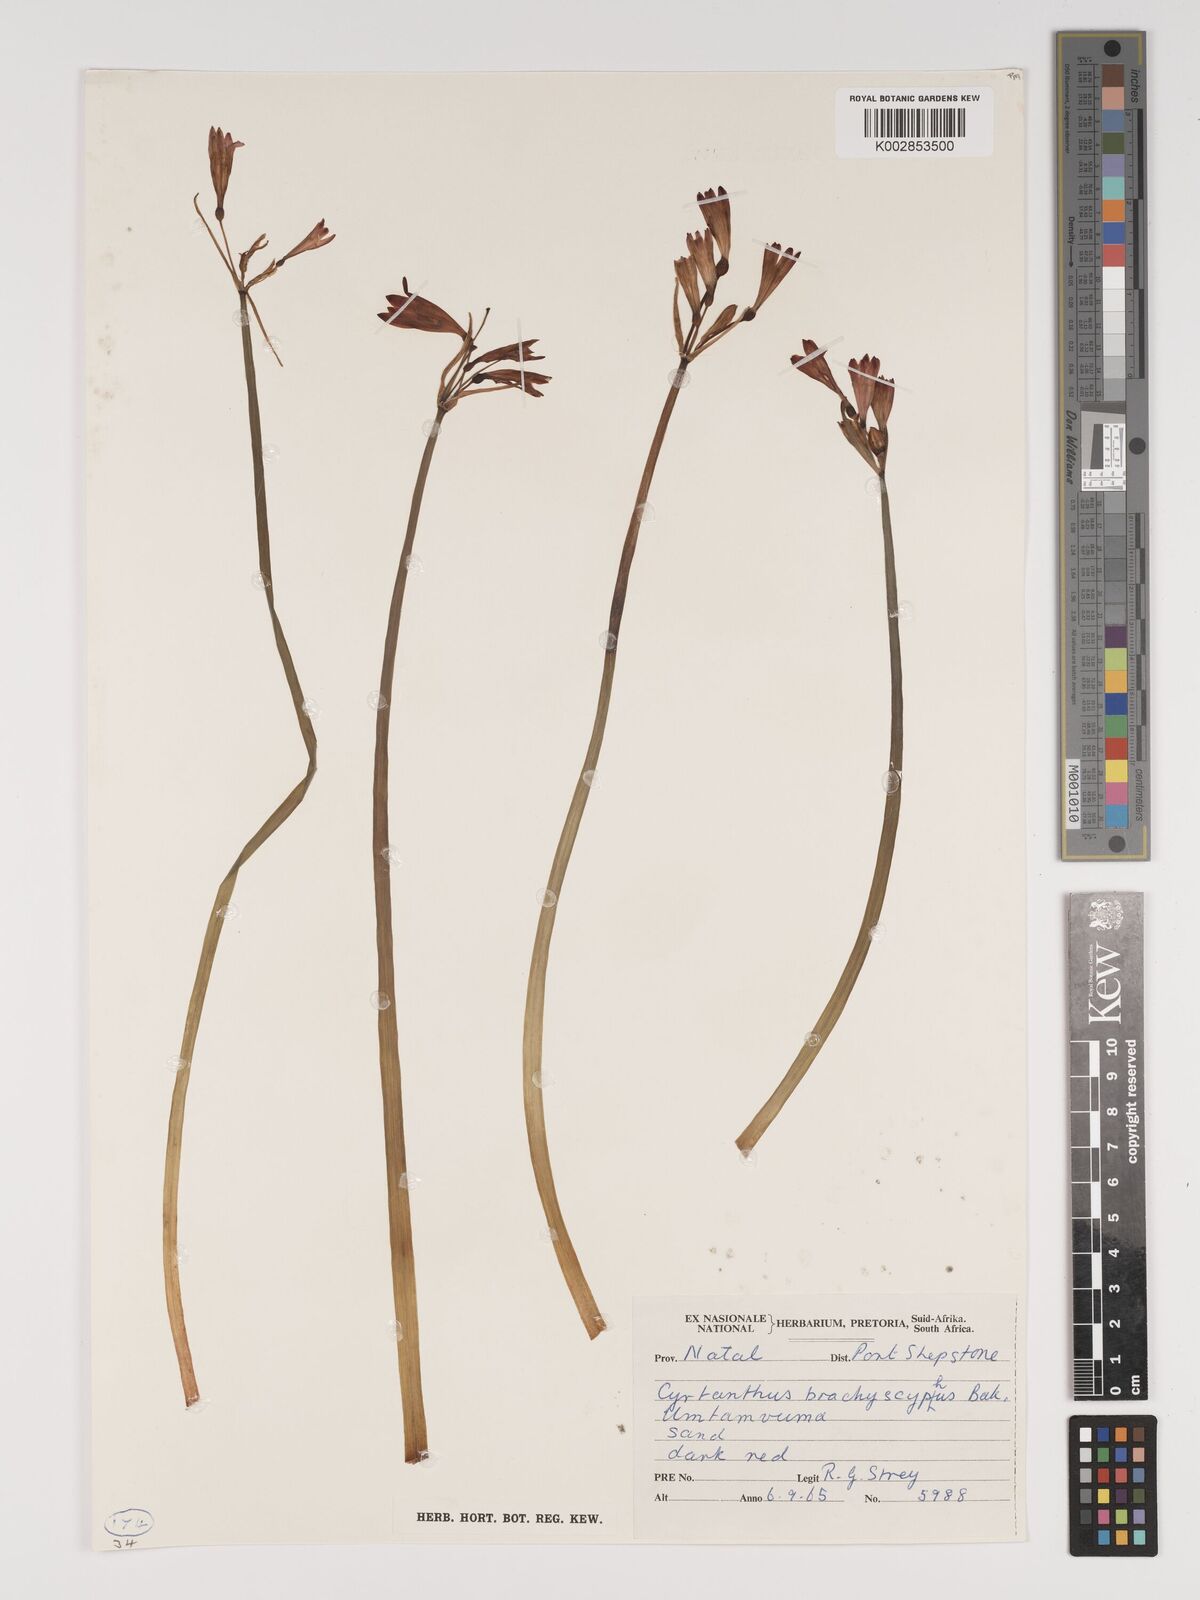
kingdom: Plantae
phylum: Tracheophyta
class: Liliopsida
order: Asparagales
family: Amaryllidaceae
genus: Cyrtanthus
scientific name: Cyrtanthus brachyscyphus
